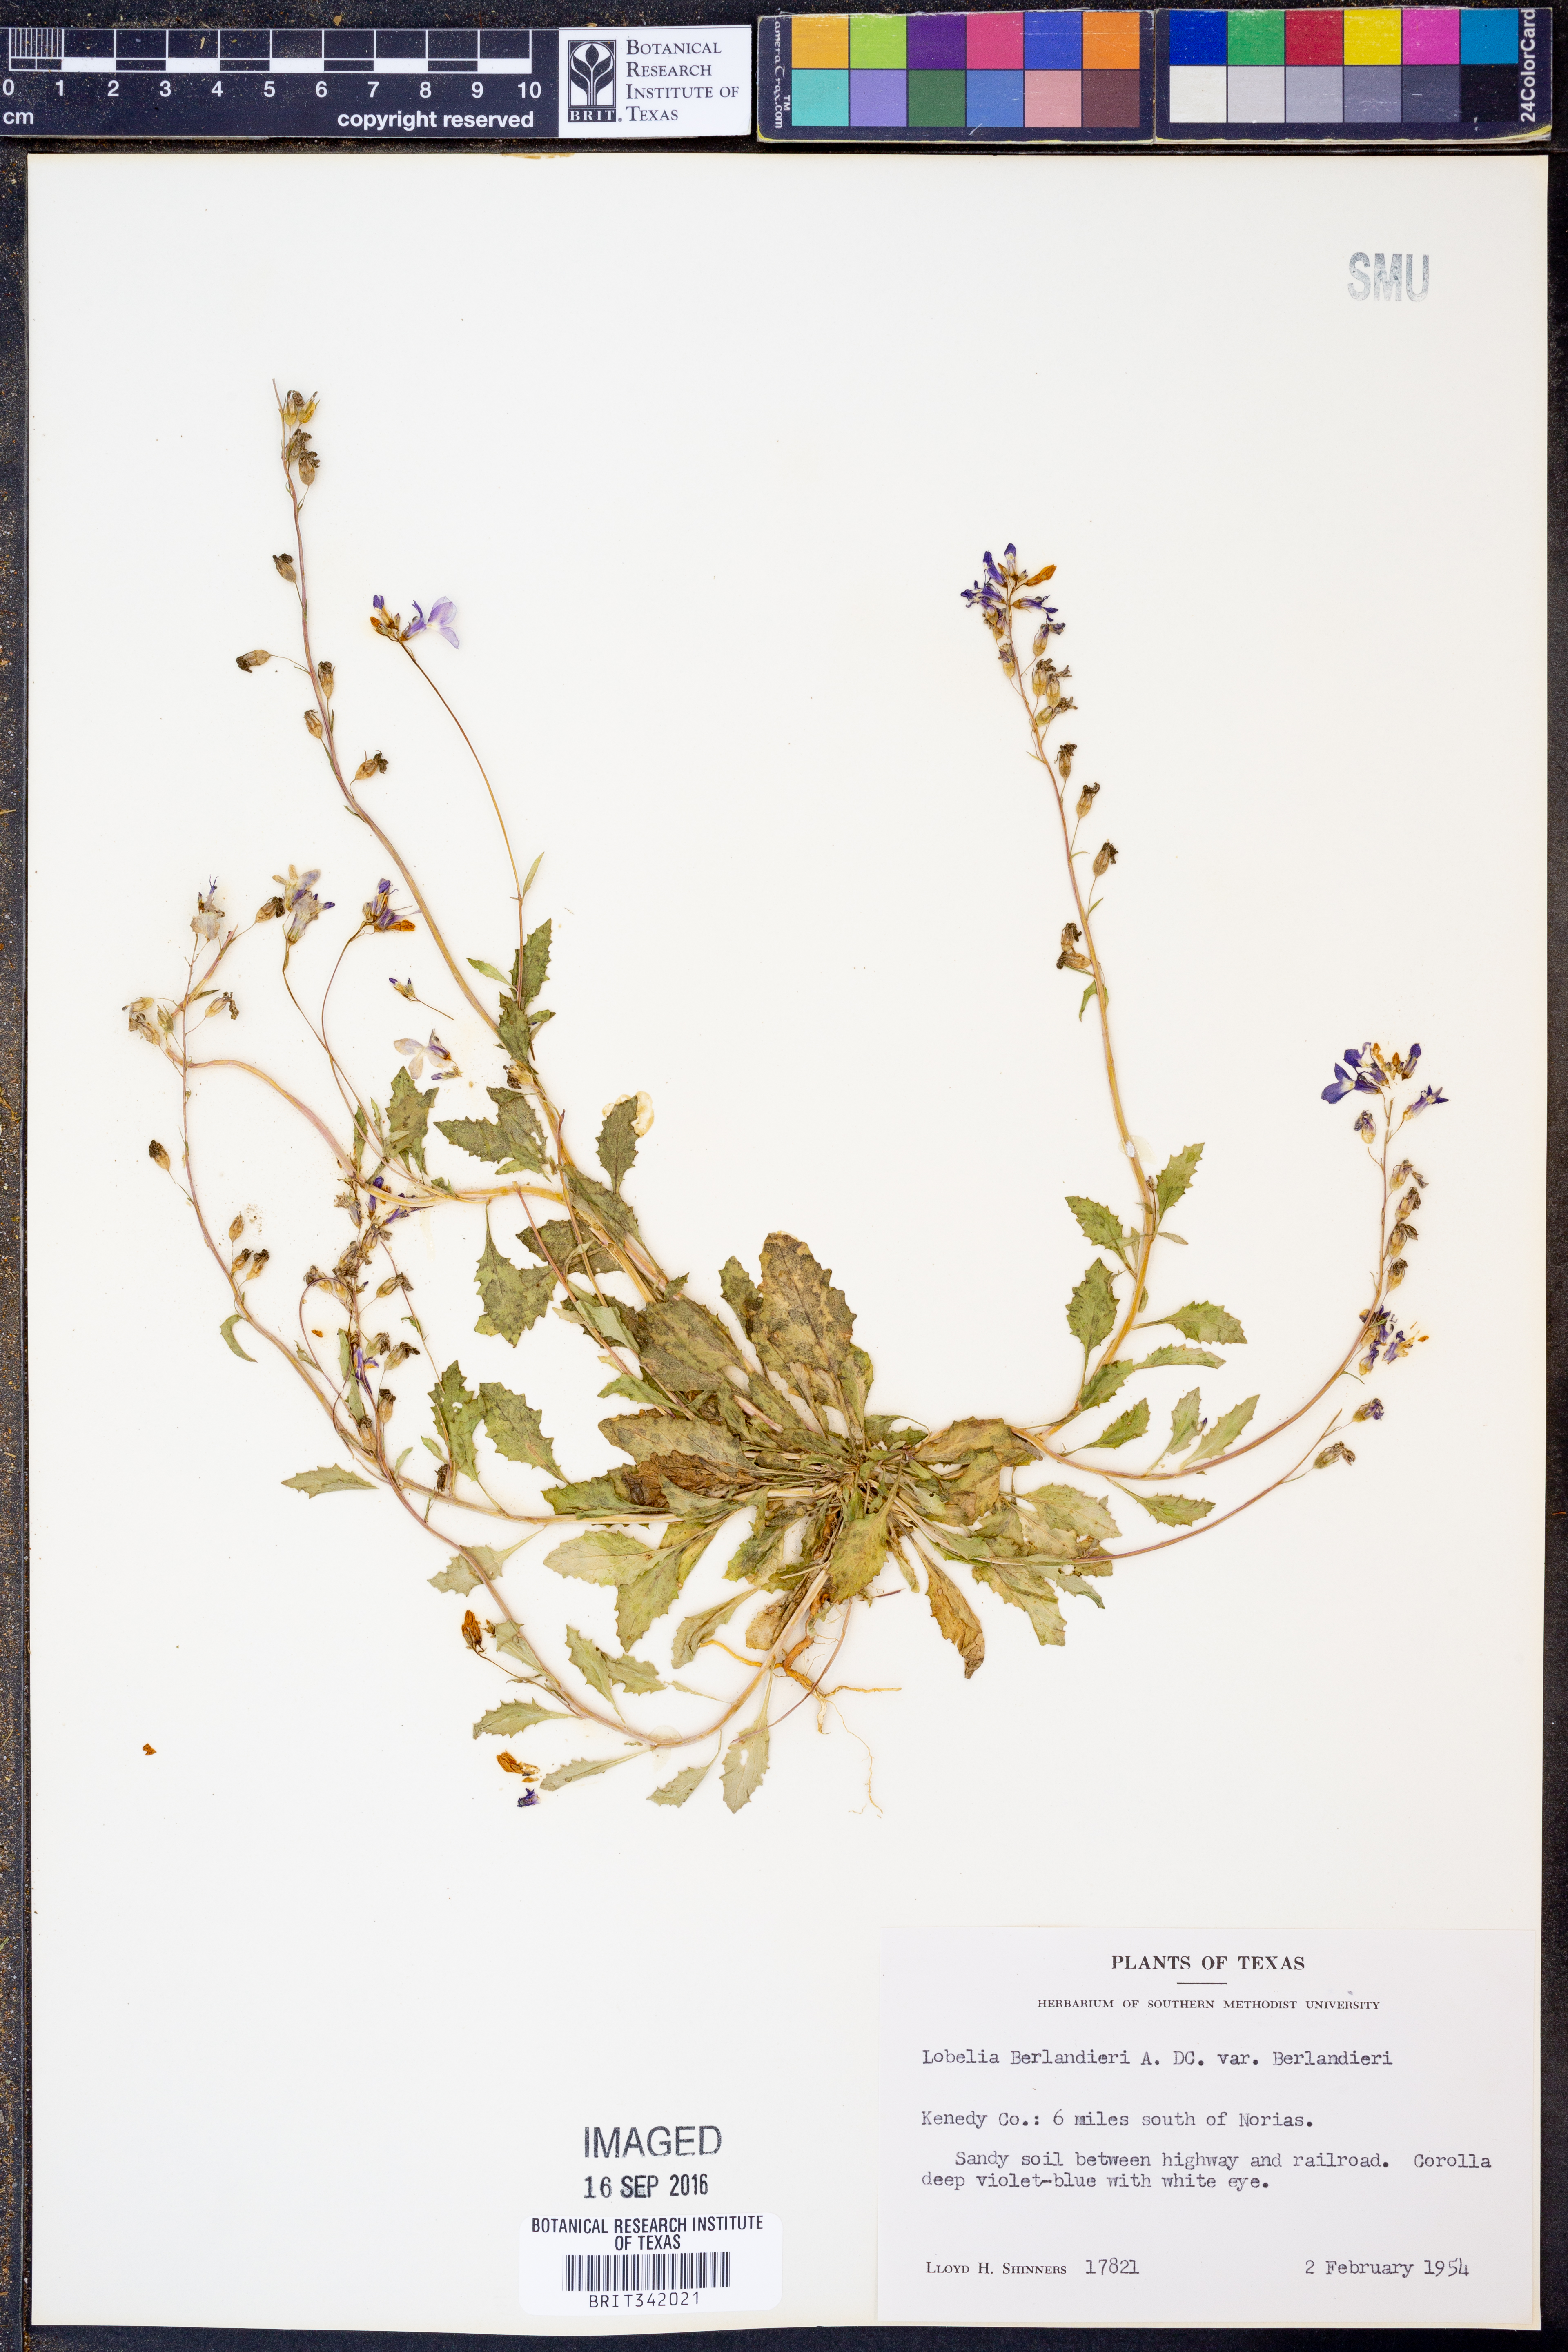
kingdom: Plantae
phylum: Tracheophyta
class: Magnoliopsida
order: Asterales
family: Campanulaceae
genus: Lobelia
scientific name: Lobelia berlandieri
